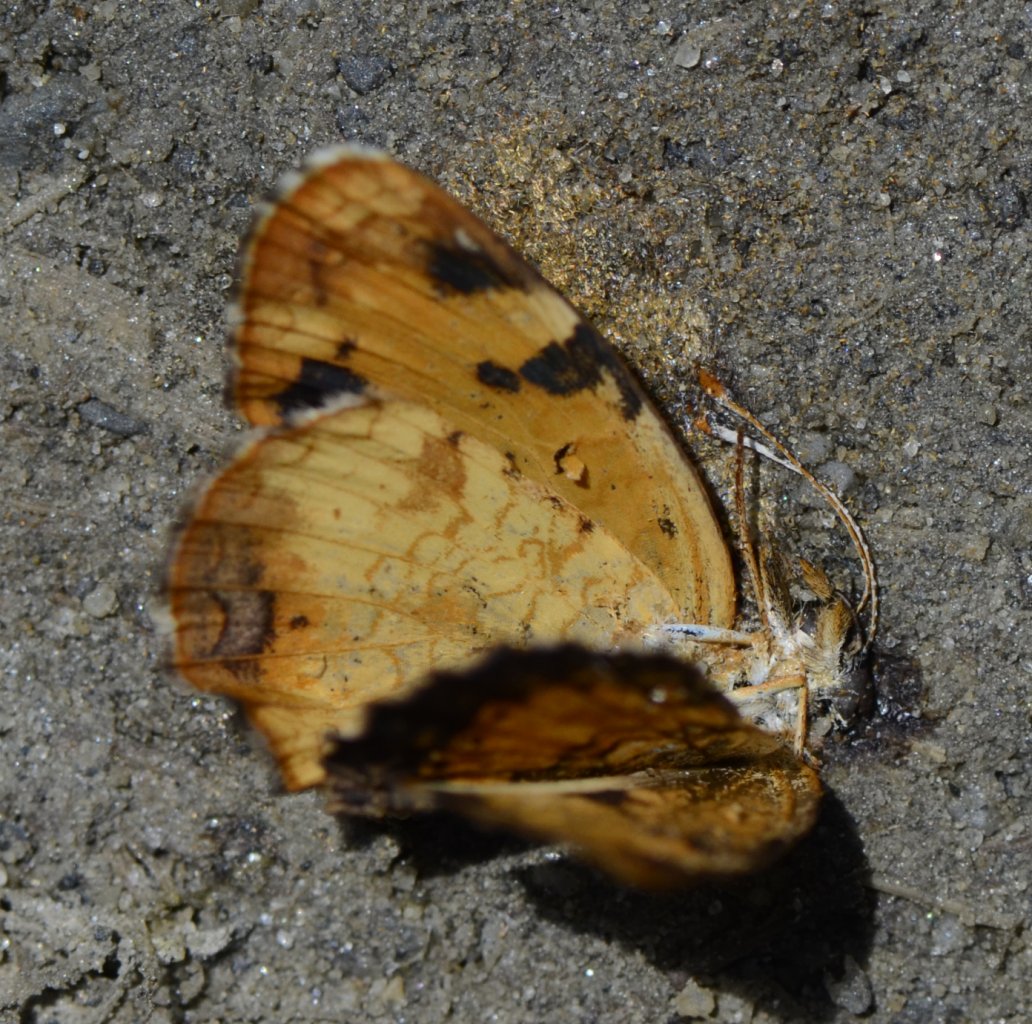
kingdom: Animalia
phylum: Arthropoda
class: Insecta
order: Lepidoptera
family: Nymphalidae
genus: Phyciodes
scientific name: Phyciodes tharos
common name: Northern Crescent
